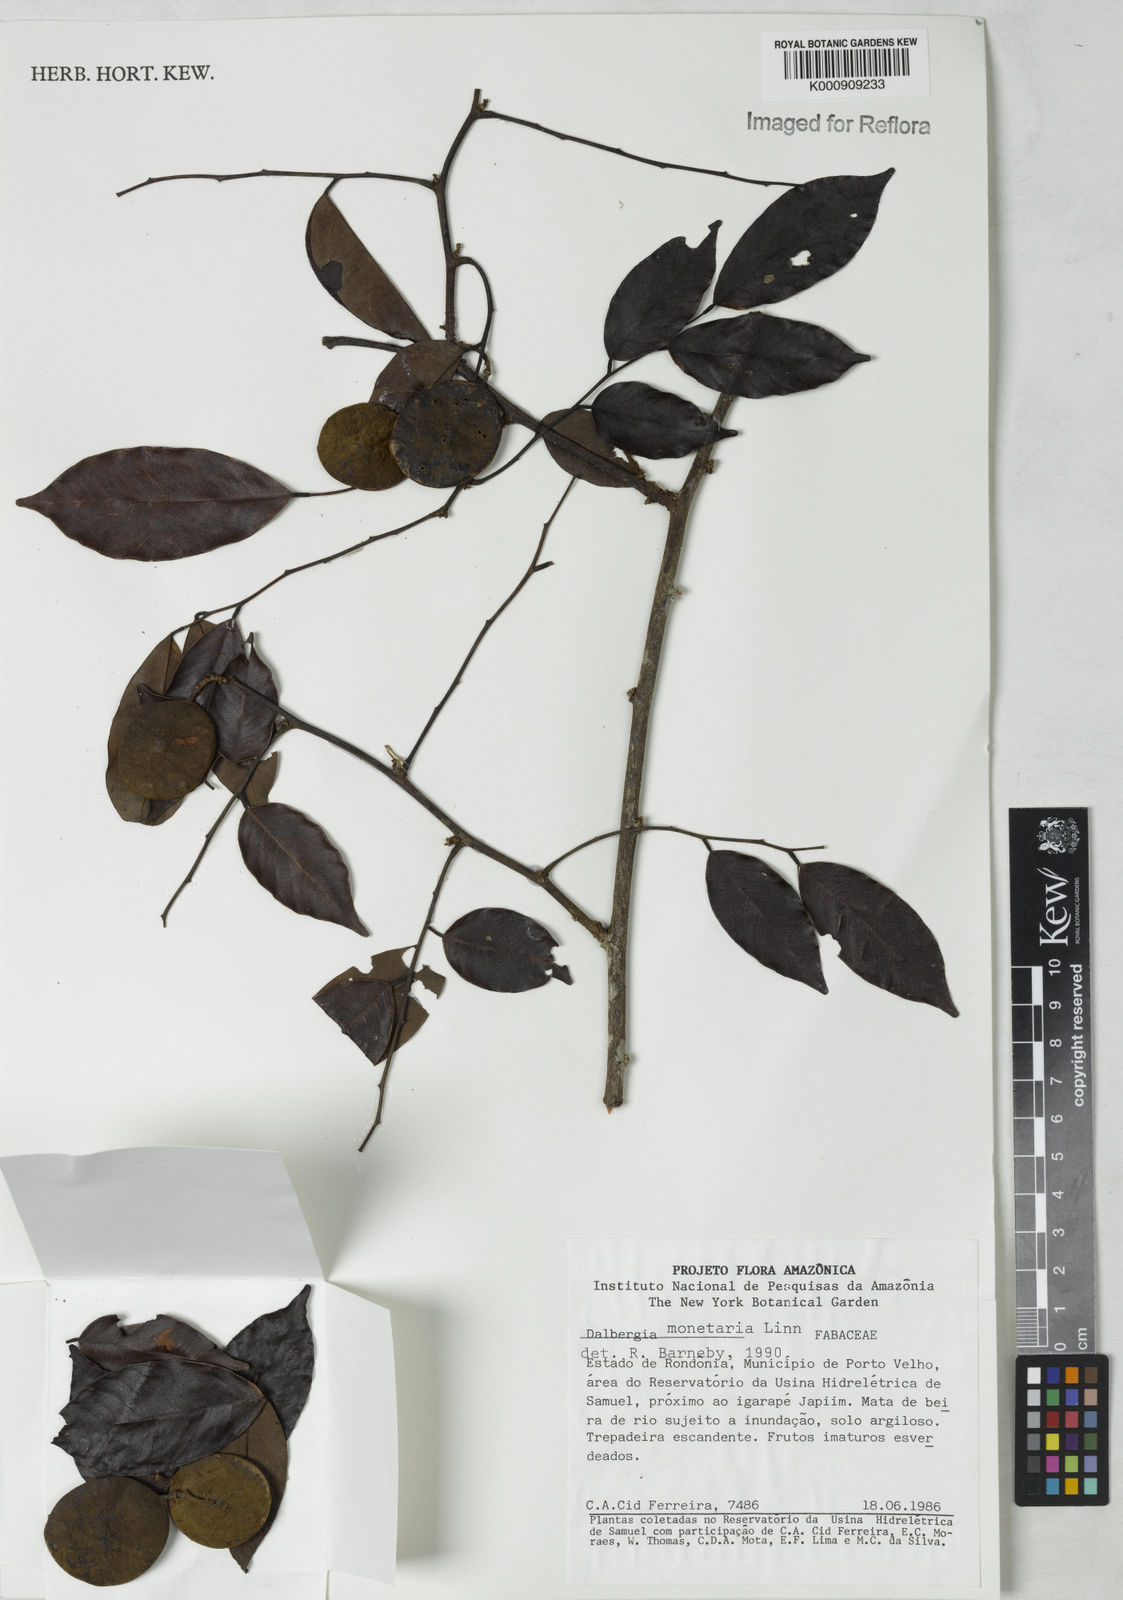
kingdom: Plantae
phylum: Tracheophyta
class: Magnoliopsida
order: Fabales
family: Fabaceae
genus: Dalbergia
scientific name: Dalbergia ovalis
